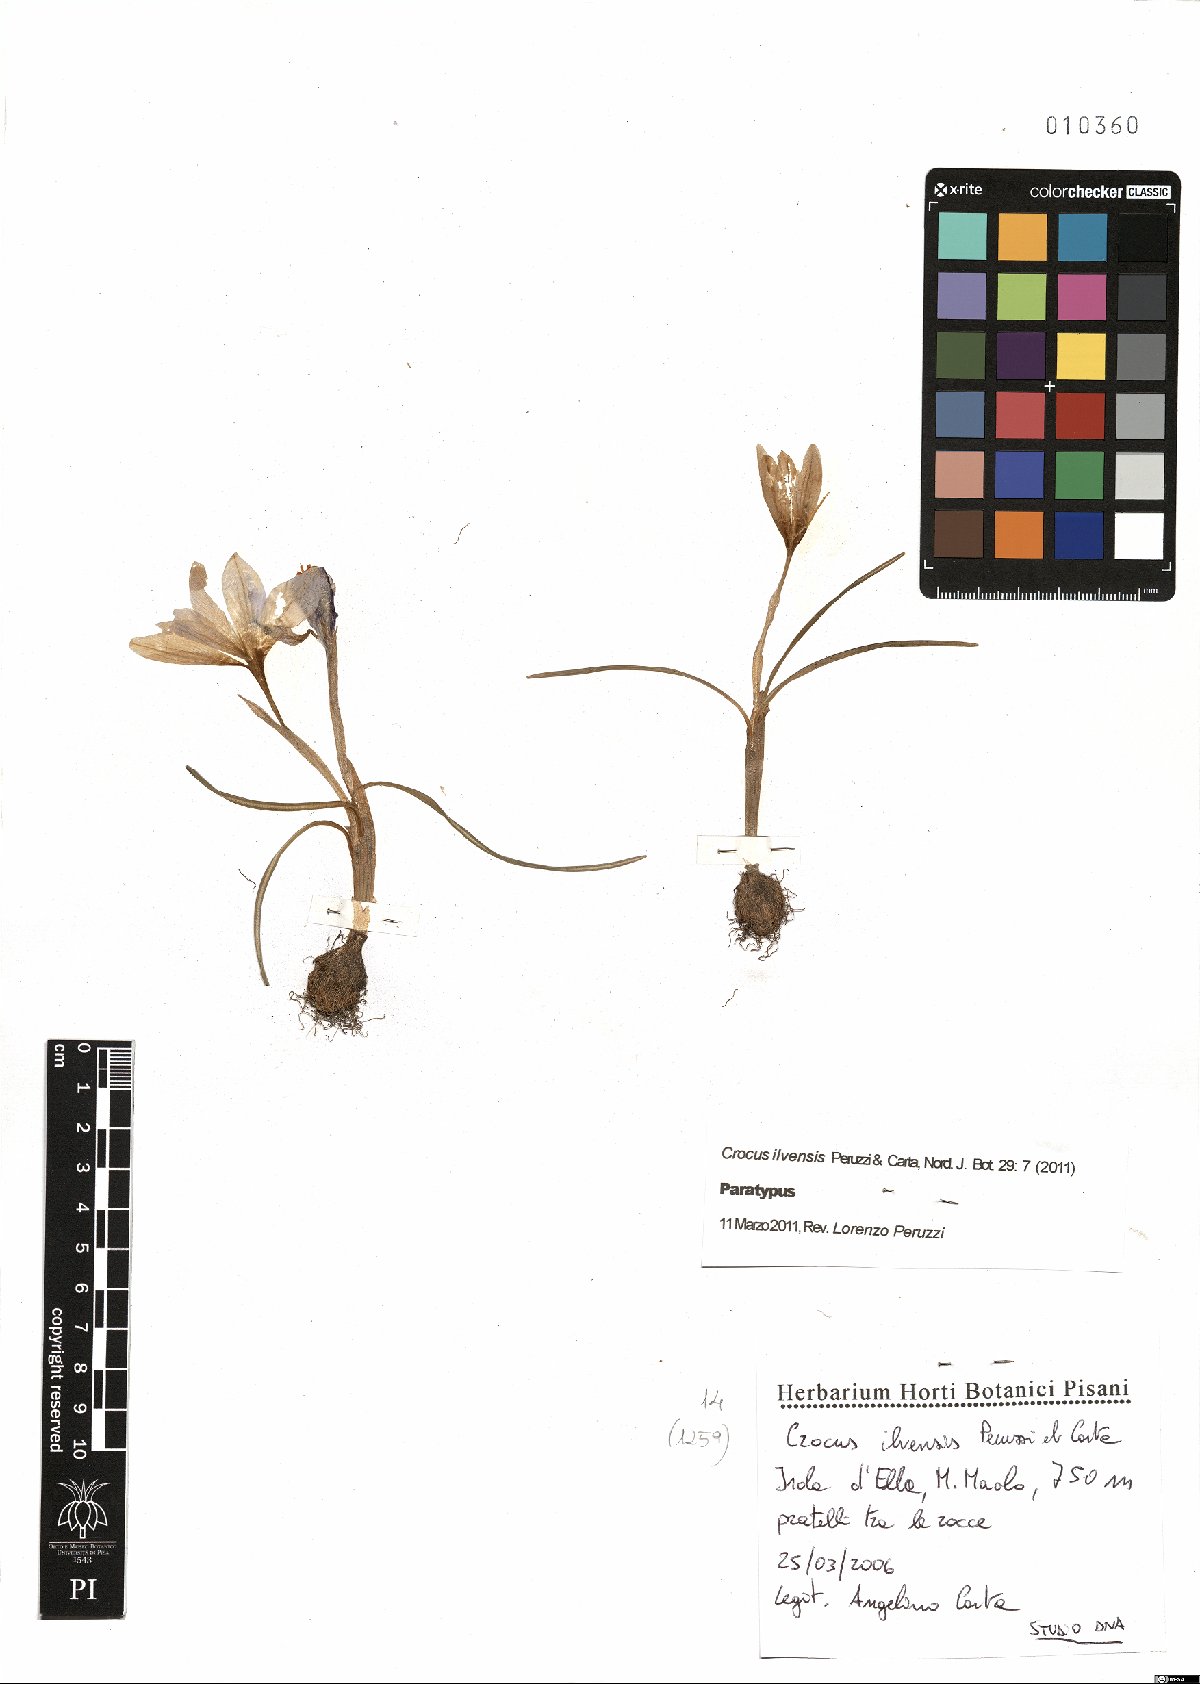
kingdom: Plantae
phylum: Tracheophyta
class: Liliopsida
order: Asparagales
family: Iridaceae
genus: Crocus
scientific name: Crocus ilvensis
